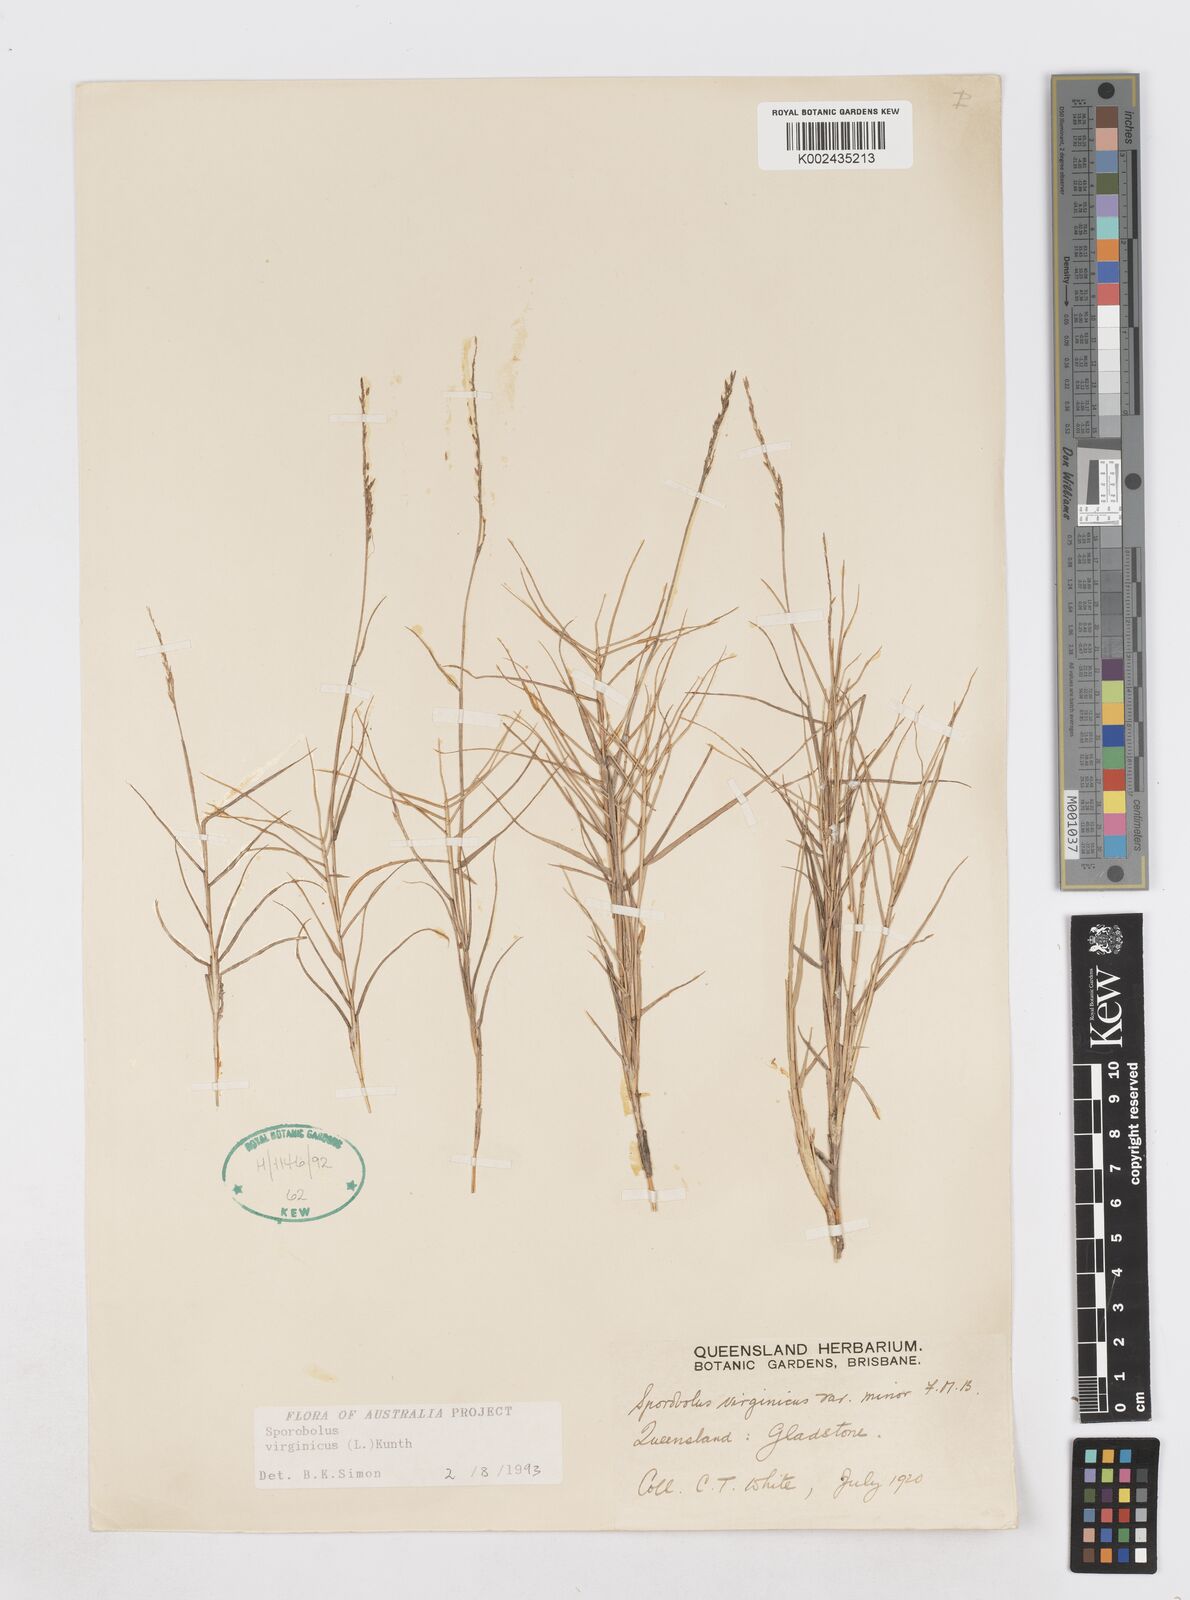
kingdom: Plantae
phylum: Tracheophyta
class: Liliopsida
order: Poales
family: Poaceae
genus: Sporobolus
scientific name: Sporobolus virginicus
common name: Beach dropseed
